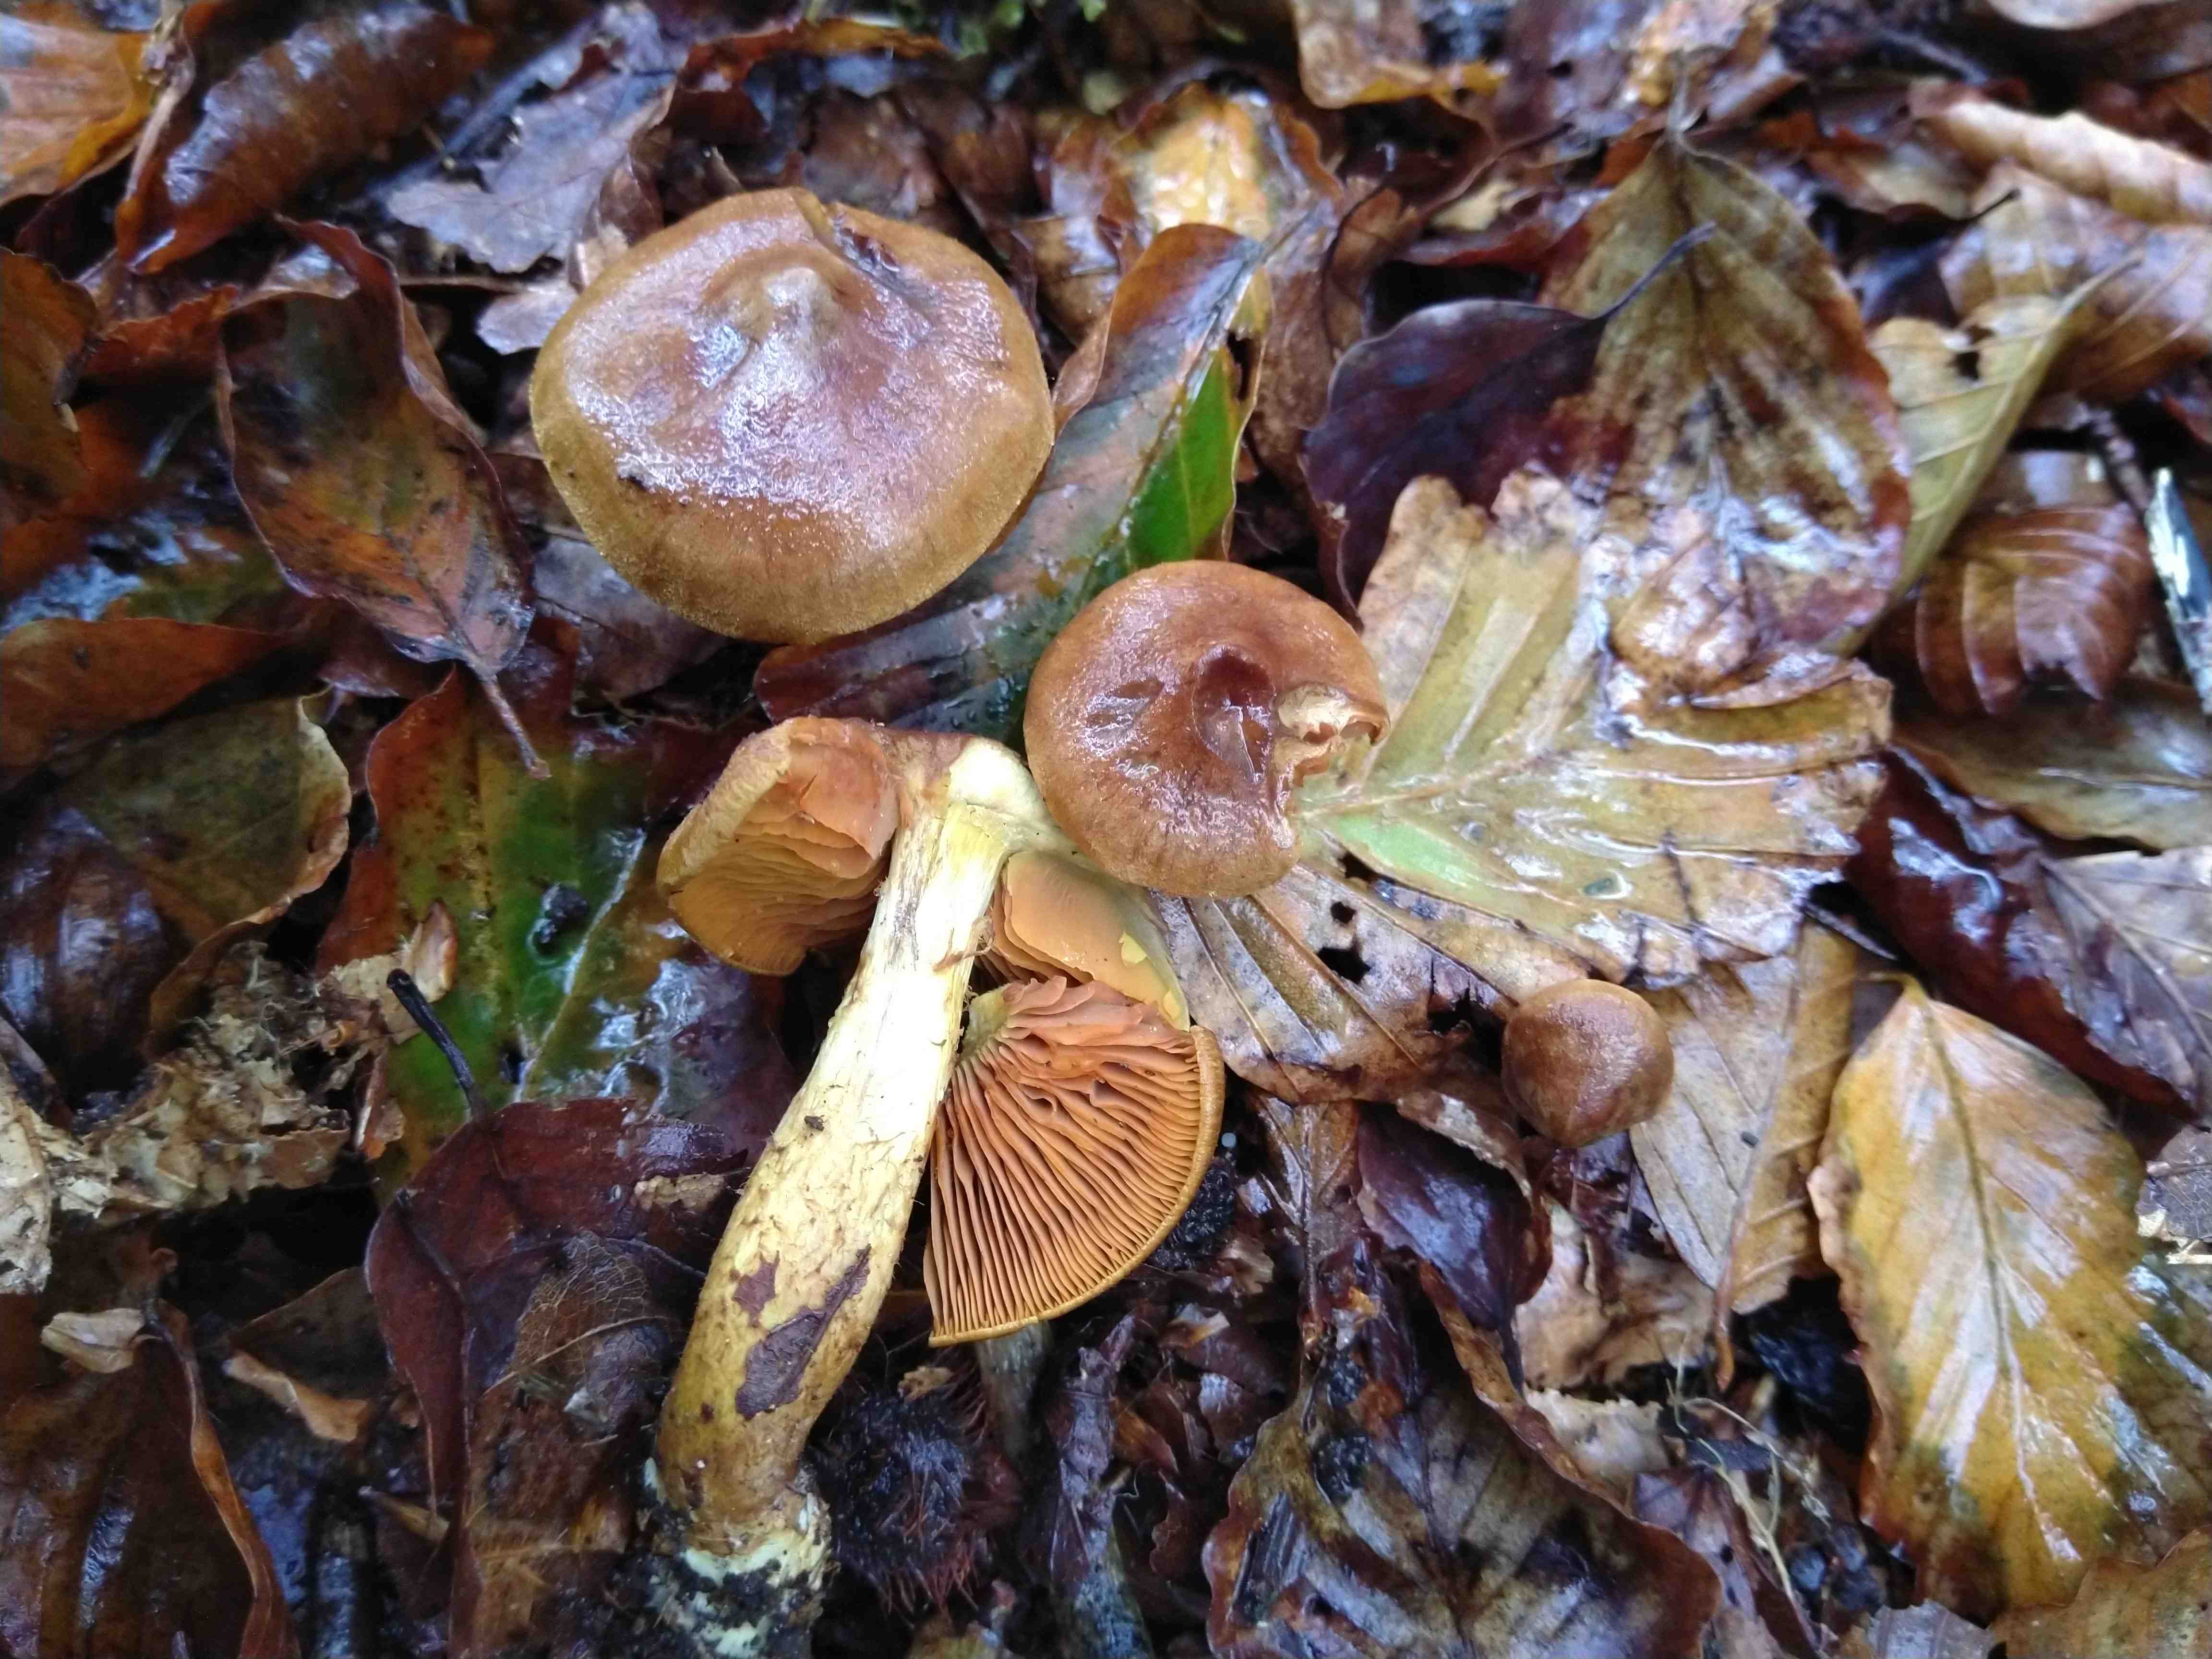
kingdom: Fungi
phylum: Basidiomycota
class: Agaricomycetes
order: Agaricales
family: Cortinariaceae
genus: Cortinarius
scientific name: Cortinarius cinnamomeus
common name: kanel-slørhat
